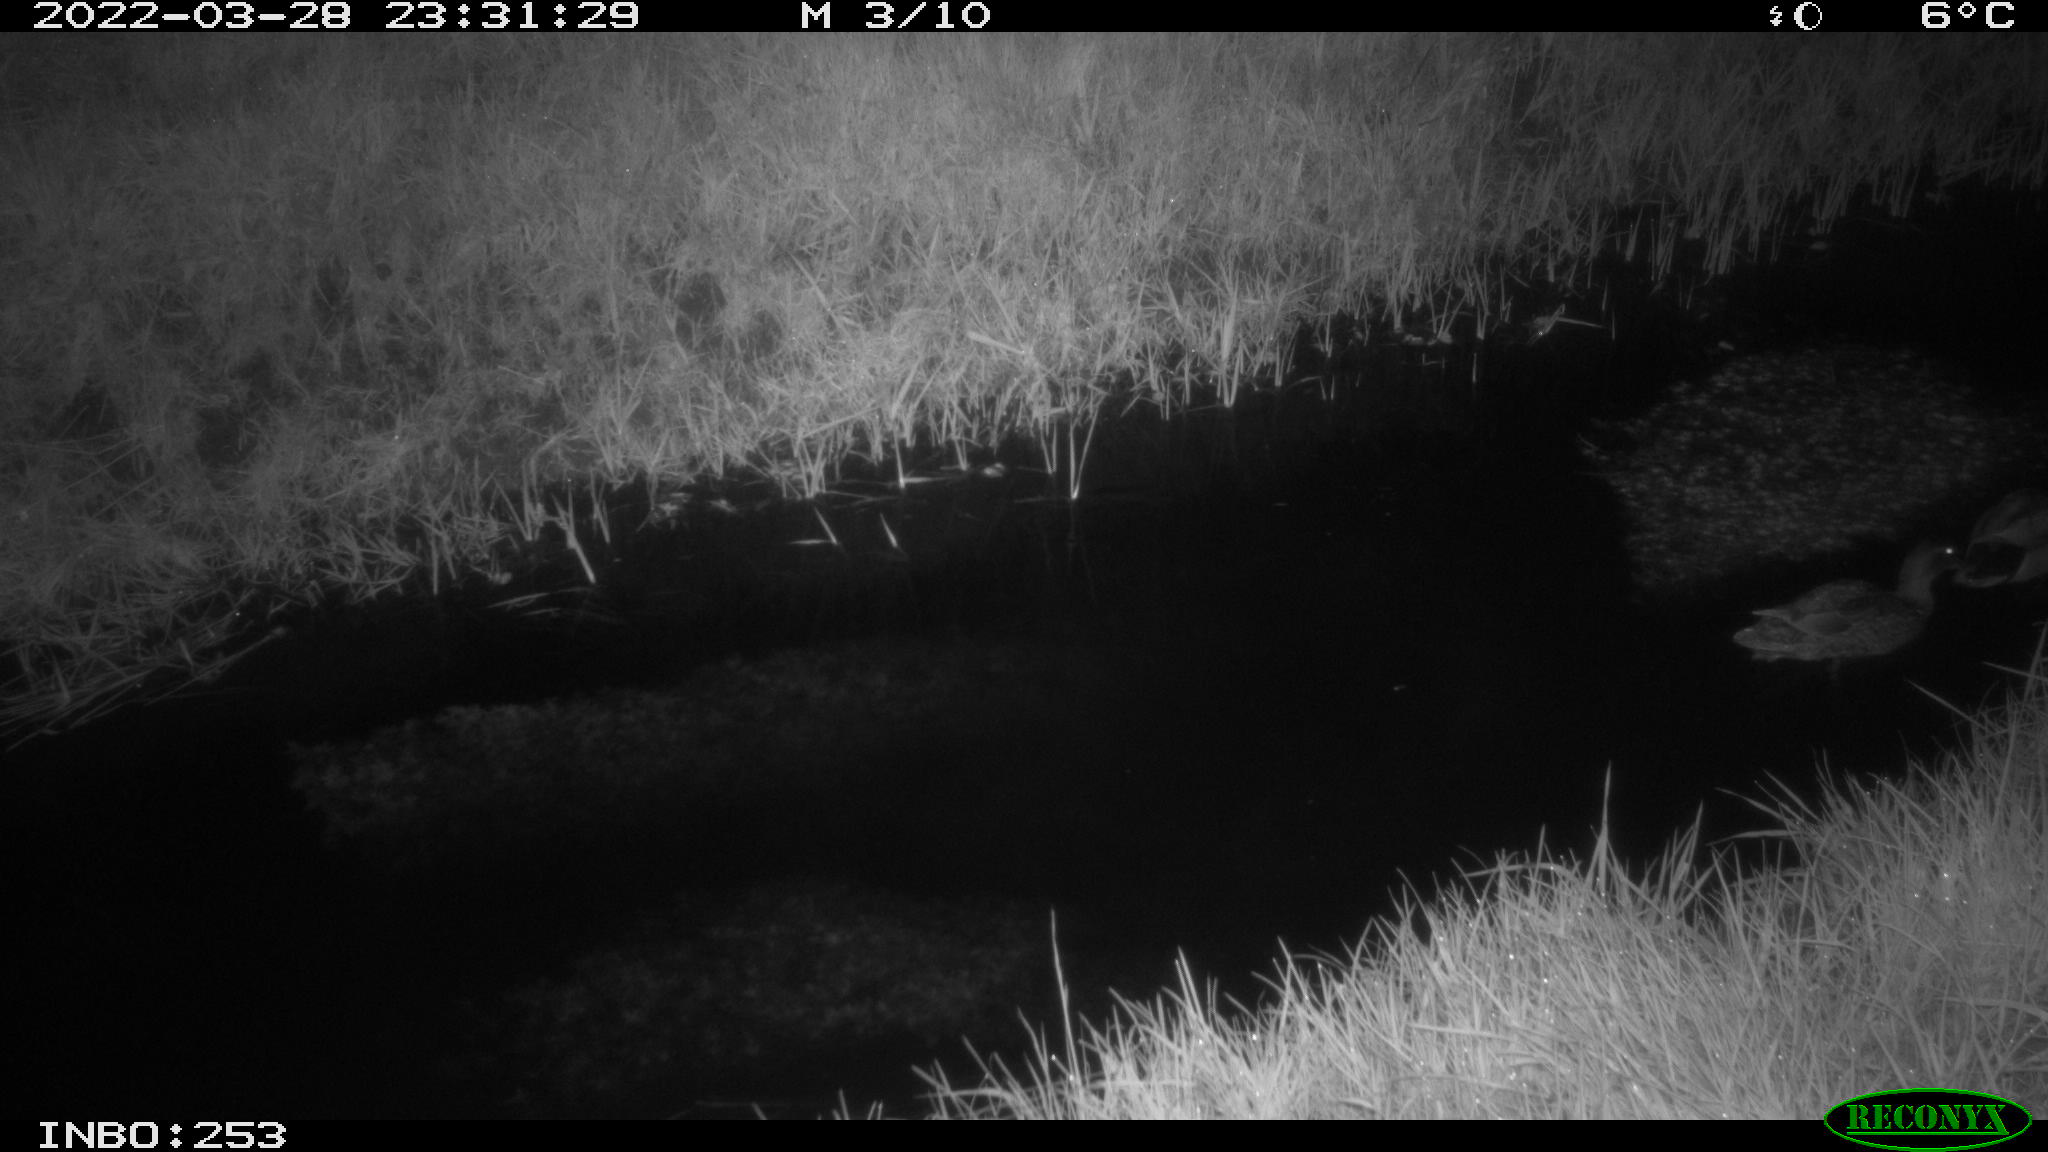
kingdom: Animalia
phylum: Chordata
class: Aves
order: Anseriformes
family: Anatidae
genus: Anas
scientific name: Anas platyrhynchos
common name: Mallard
